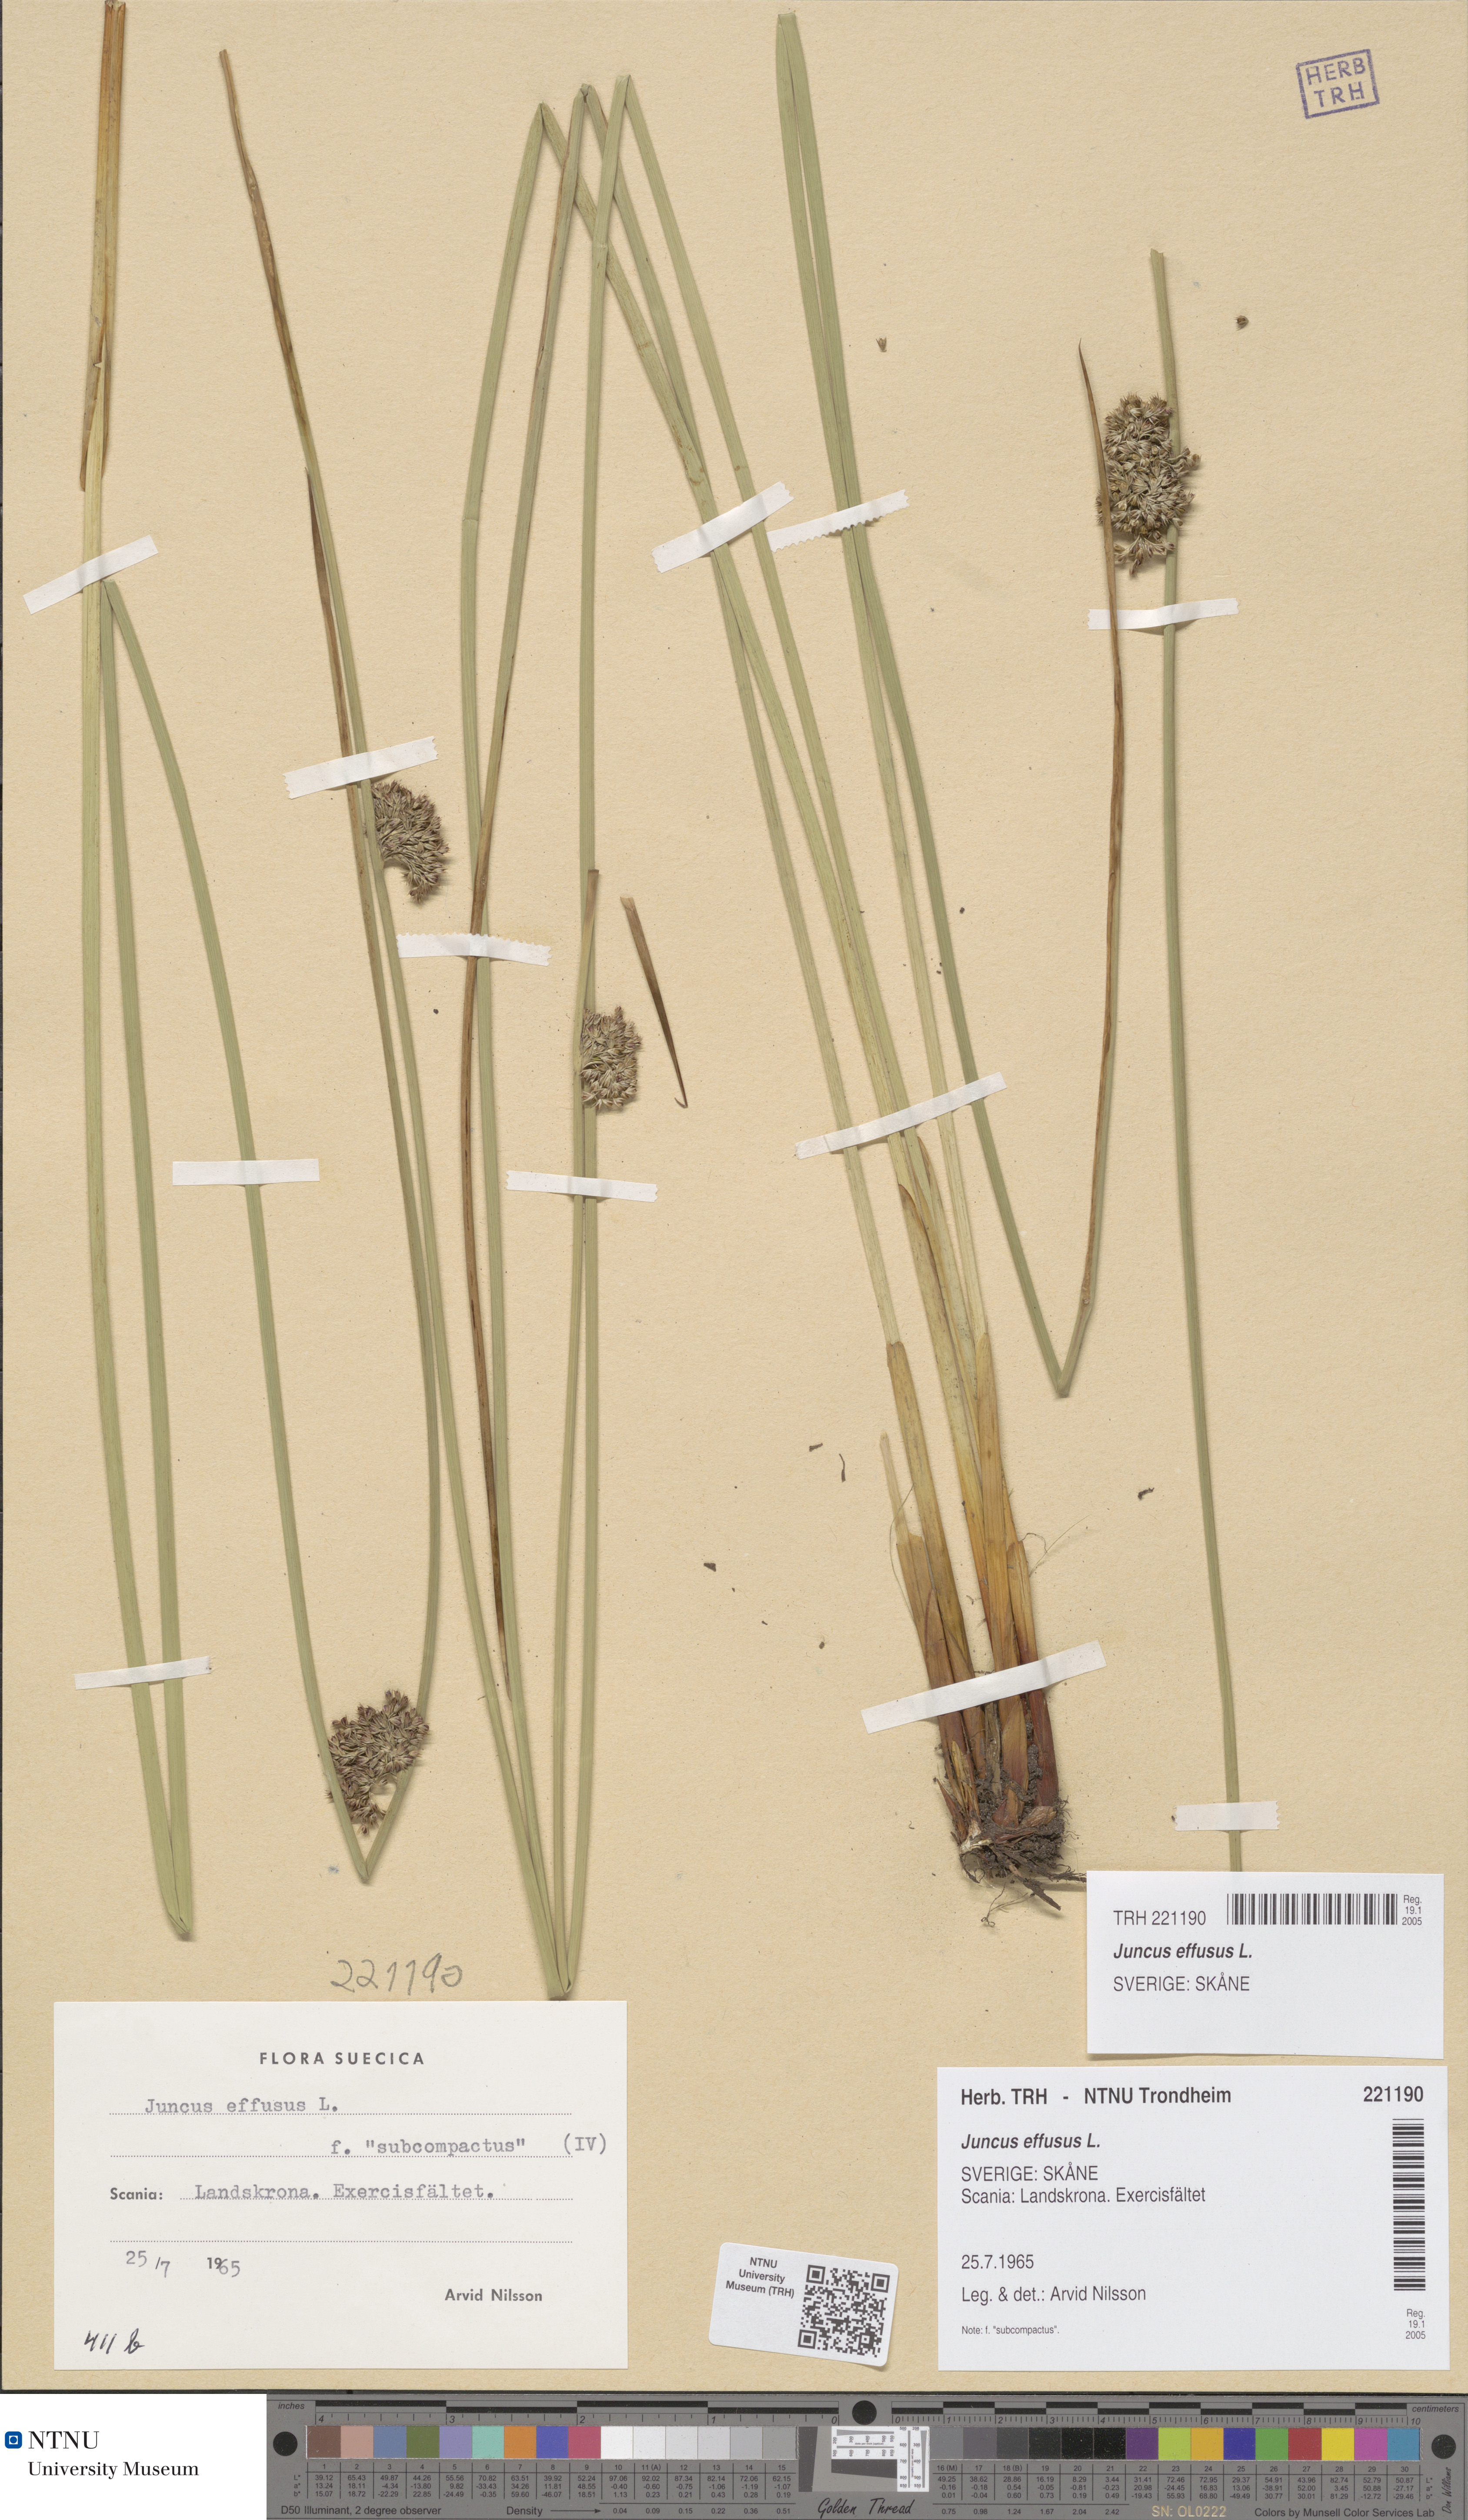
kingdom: Plantae
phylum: Tracheophyta
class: Liliopsida
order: Poales
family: Juncaceae
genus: Juncus
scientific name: Juncus effusus
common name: Soft rush
